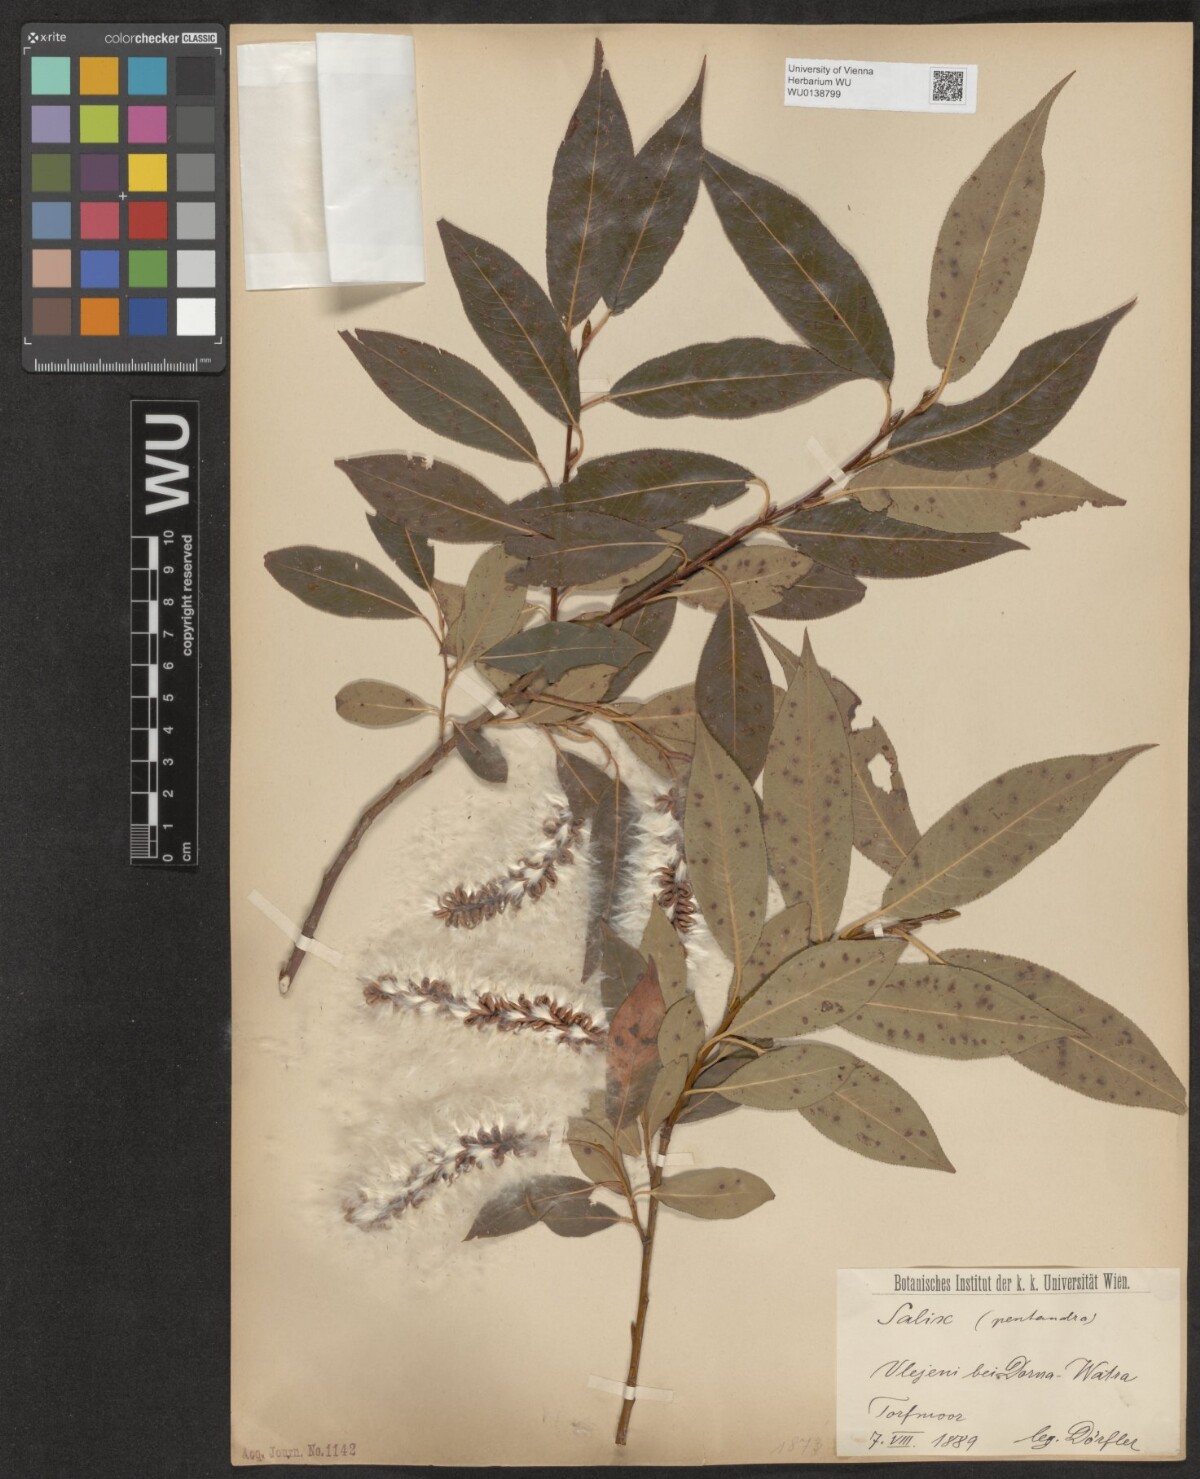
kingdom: Plantae
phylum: Tracheophyta
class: Magnoliopsida
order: Malpighiales
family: Salicaceae
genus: Salix
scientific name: Salix pentandra
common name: Bay willow
